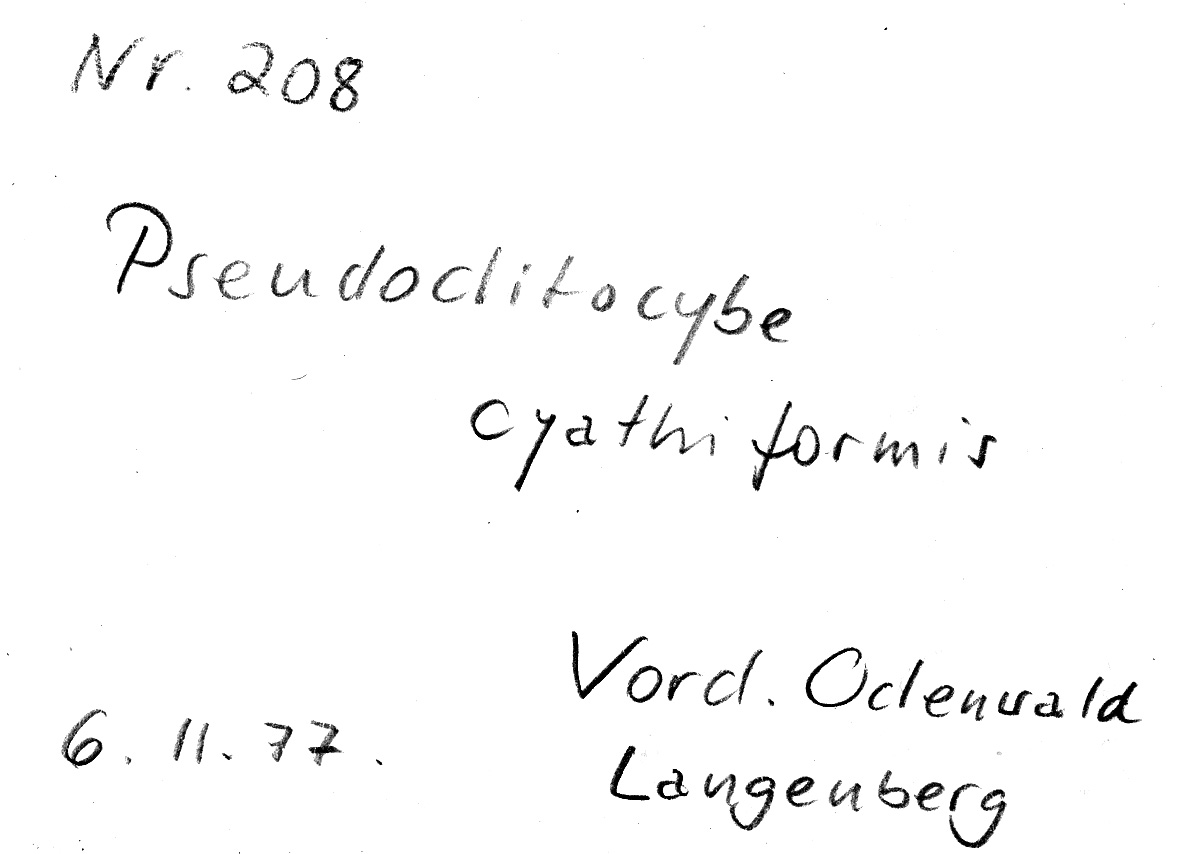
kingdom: Fungi
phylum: Basidiomycota
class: Agaricomycetes
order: Agaricales
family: Pseudoclitocybaceae
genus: Pseudoclitocybe
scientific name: Pseudoclitocybe cyathiformis
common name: Goblet
